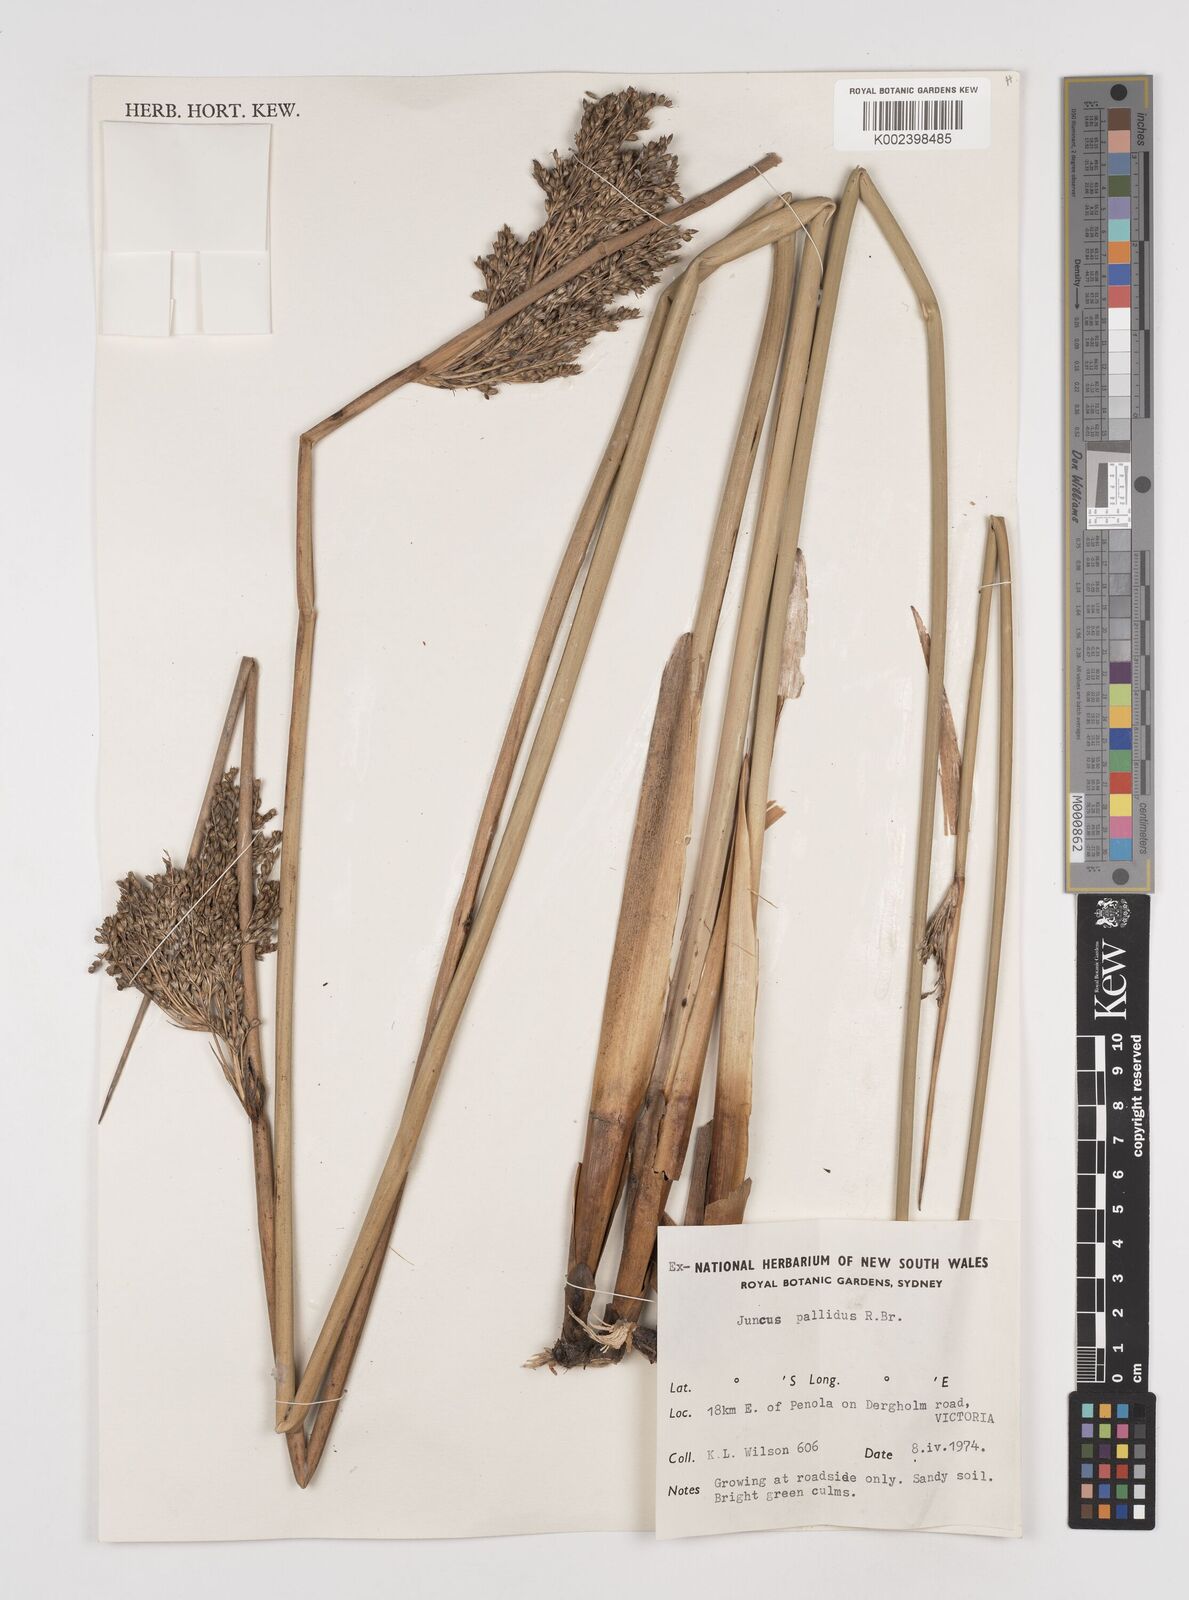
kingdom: Plantae
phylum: Tracheophyta
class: Liliopsida
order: Poales
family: Juncaceae
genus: Juncus
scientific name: Juncus pallidus
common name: Great soft-rush
